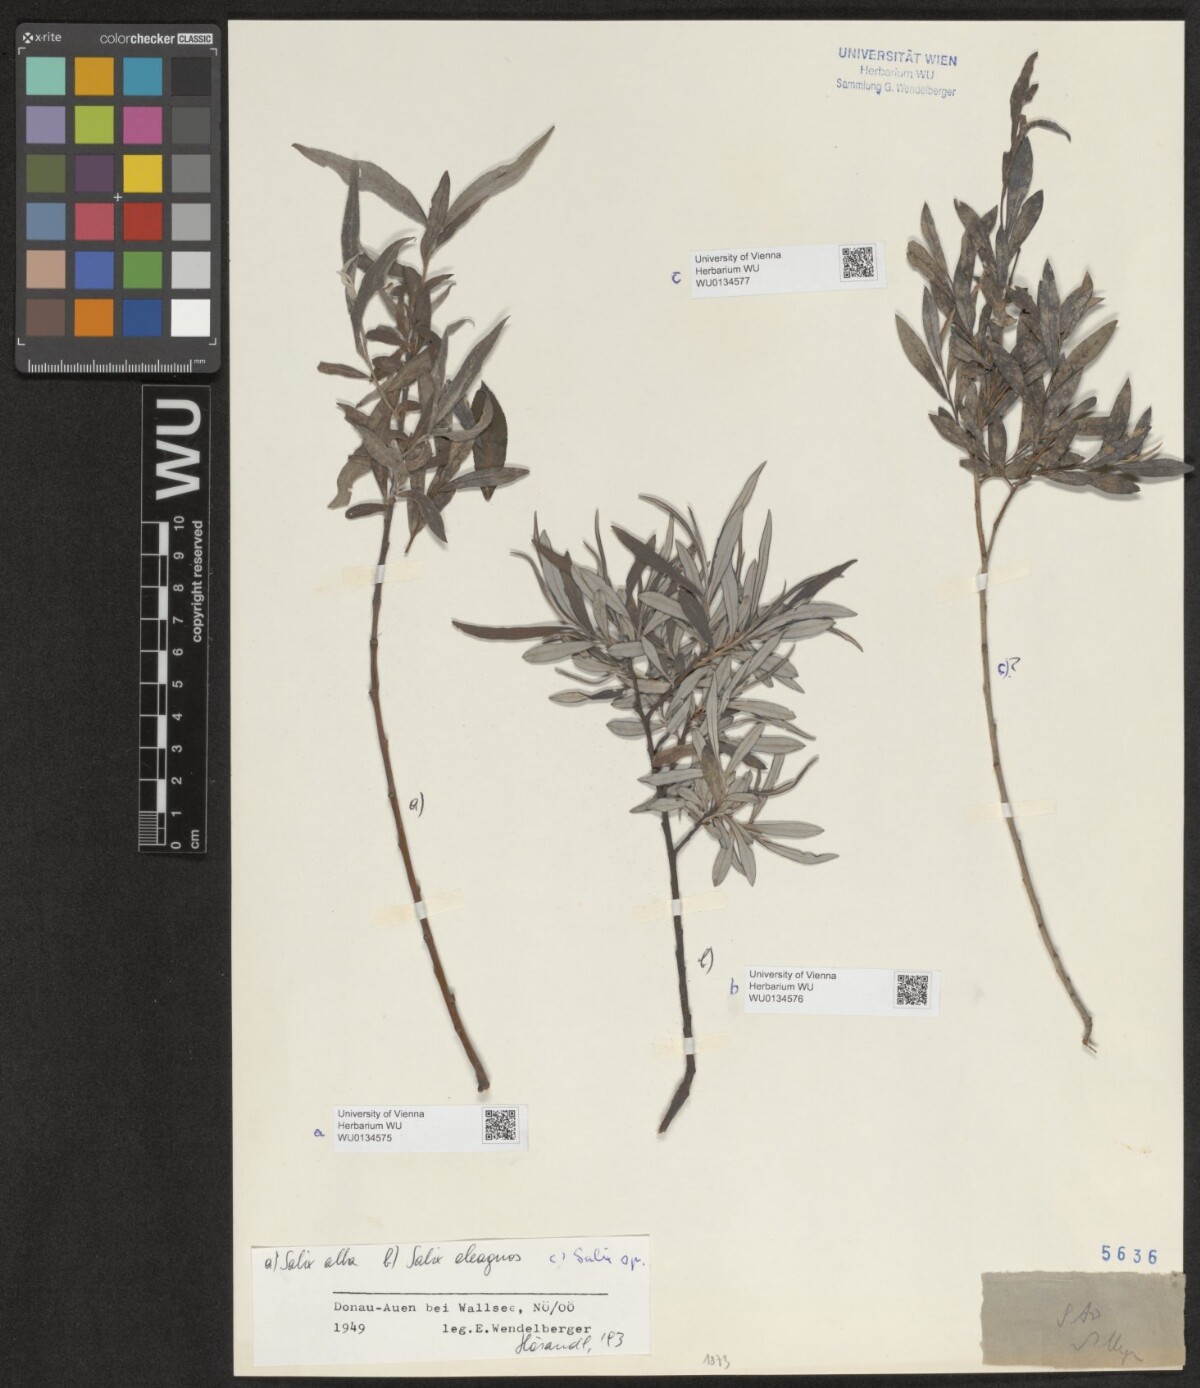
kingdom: Plantae
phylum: Tracheophyta
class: Magnoliopsida
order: Malpighiales
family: Salicaceae
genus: Salix
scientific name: Salix alba
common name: White willow
